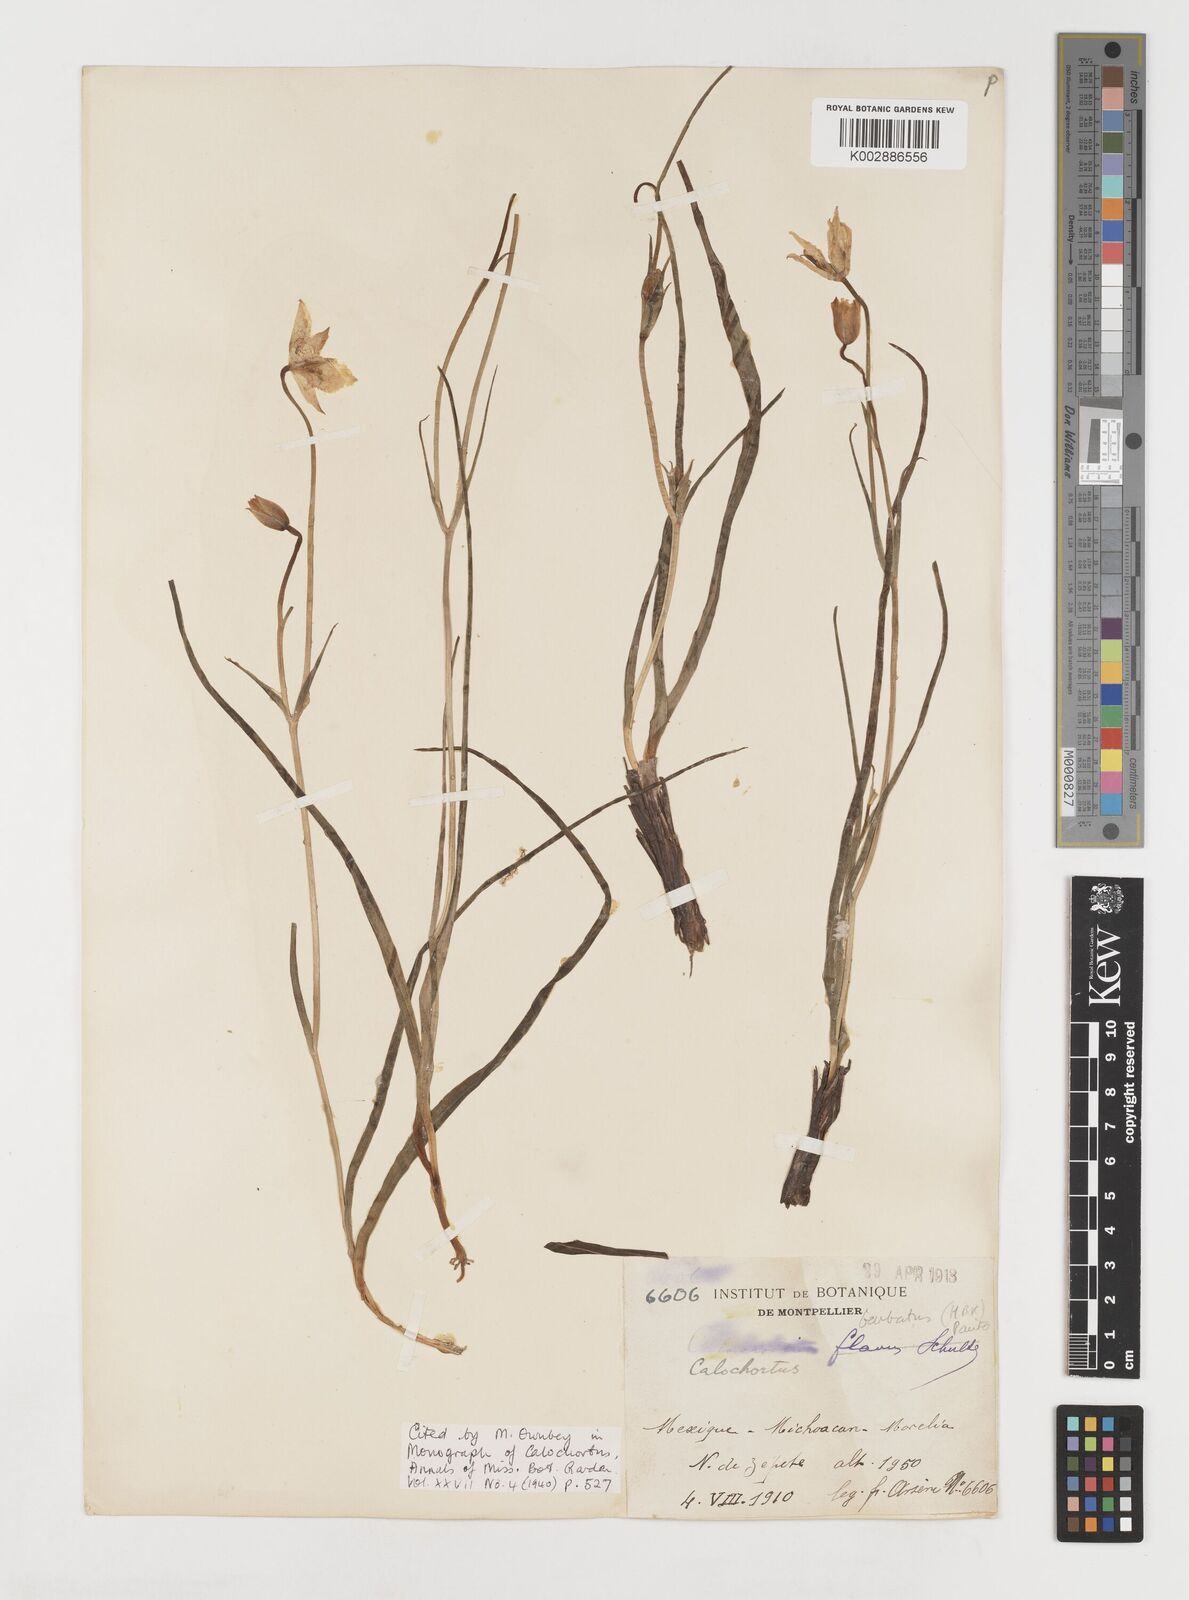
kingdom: Plantae
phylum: Tracheophyta
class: Liliopsida
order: Liliales
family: Liliaceae
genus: Calochortus
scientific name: Calochortus barbatus
